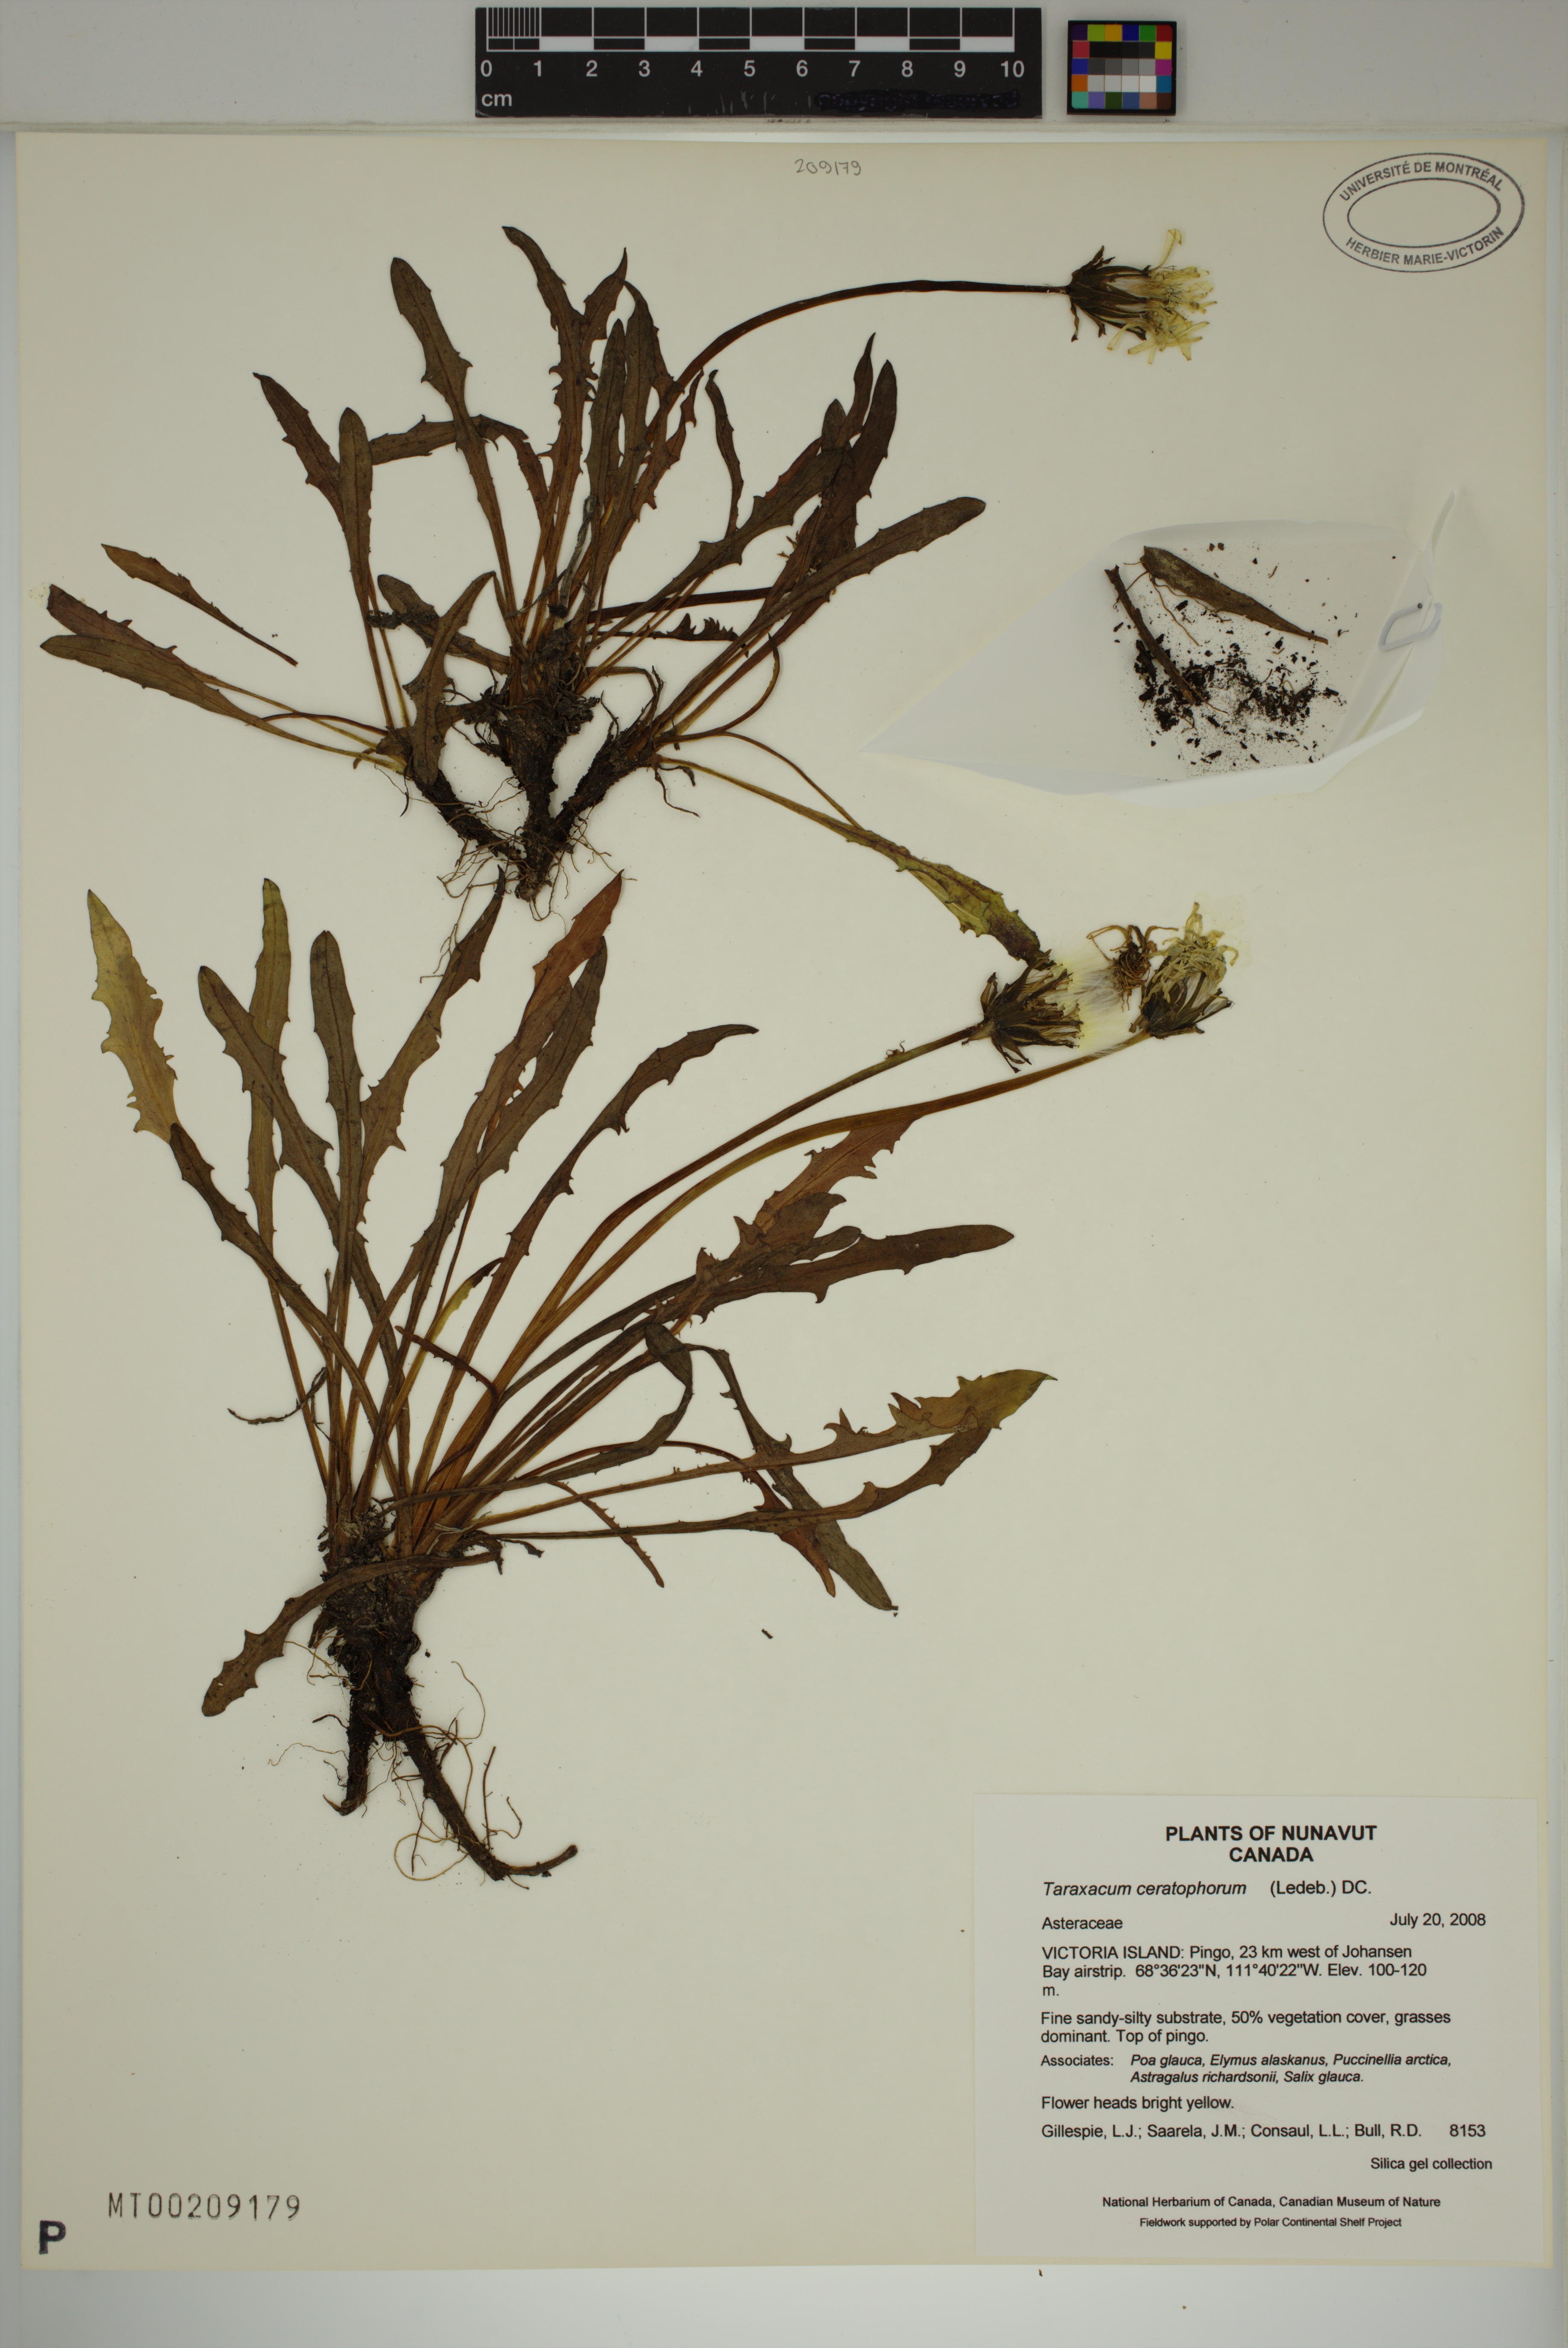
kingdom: Plantae
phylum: Tracheophyta
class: Magnoliopsida
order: Asterales
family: Asteraceae
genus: Taraxacum
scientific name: Taraxacum ceratophorum
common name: Horn-bearing dandelion
